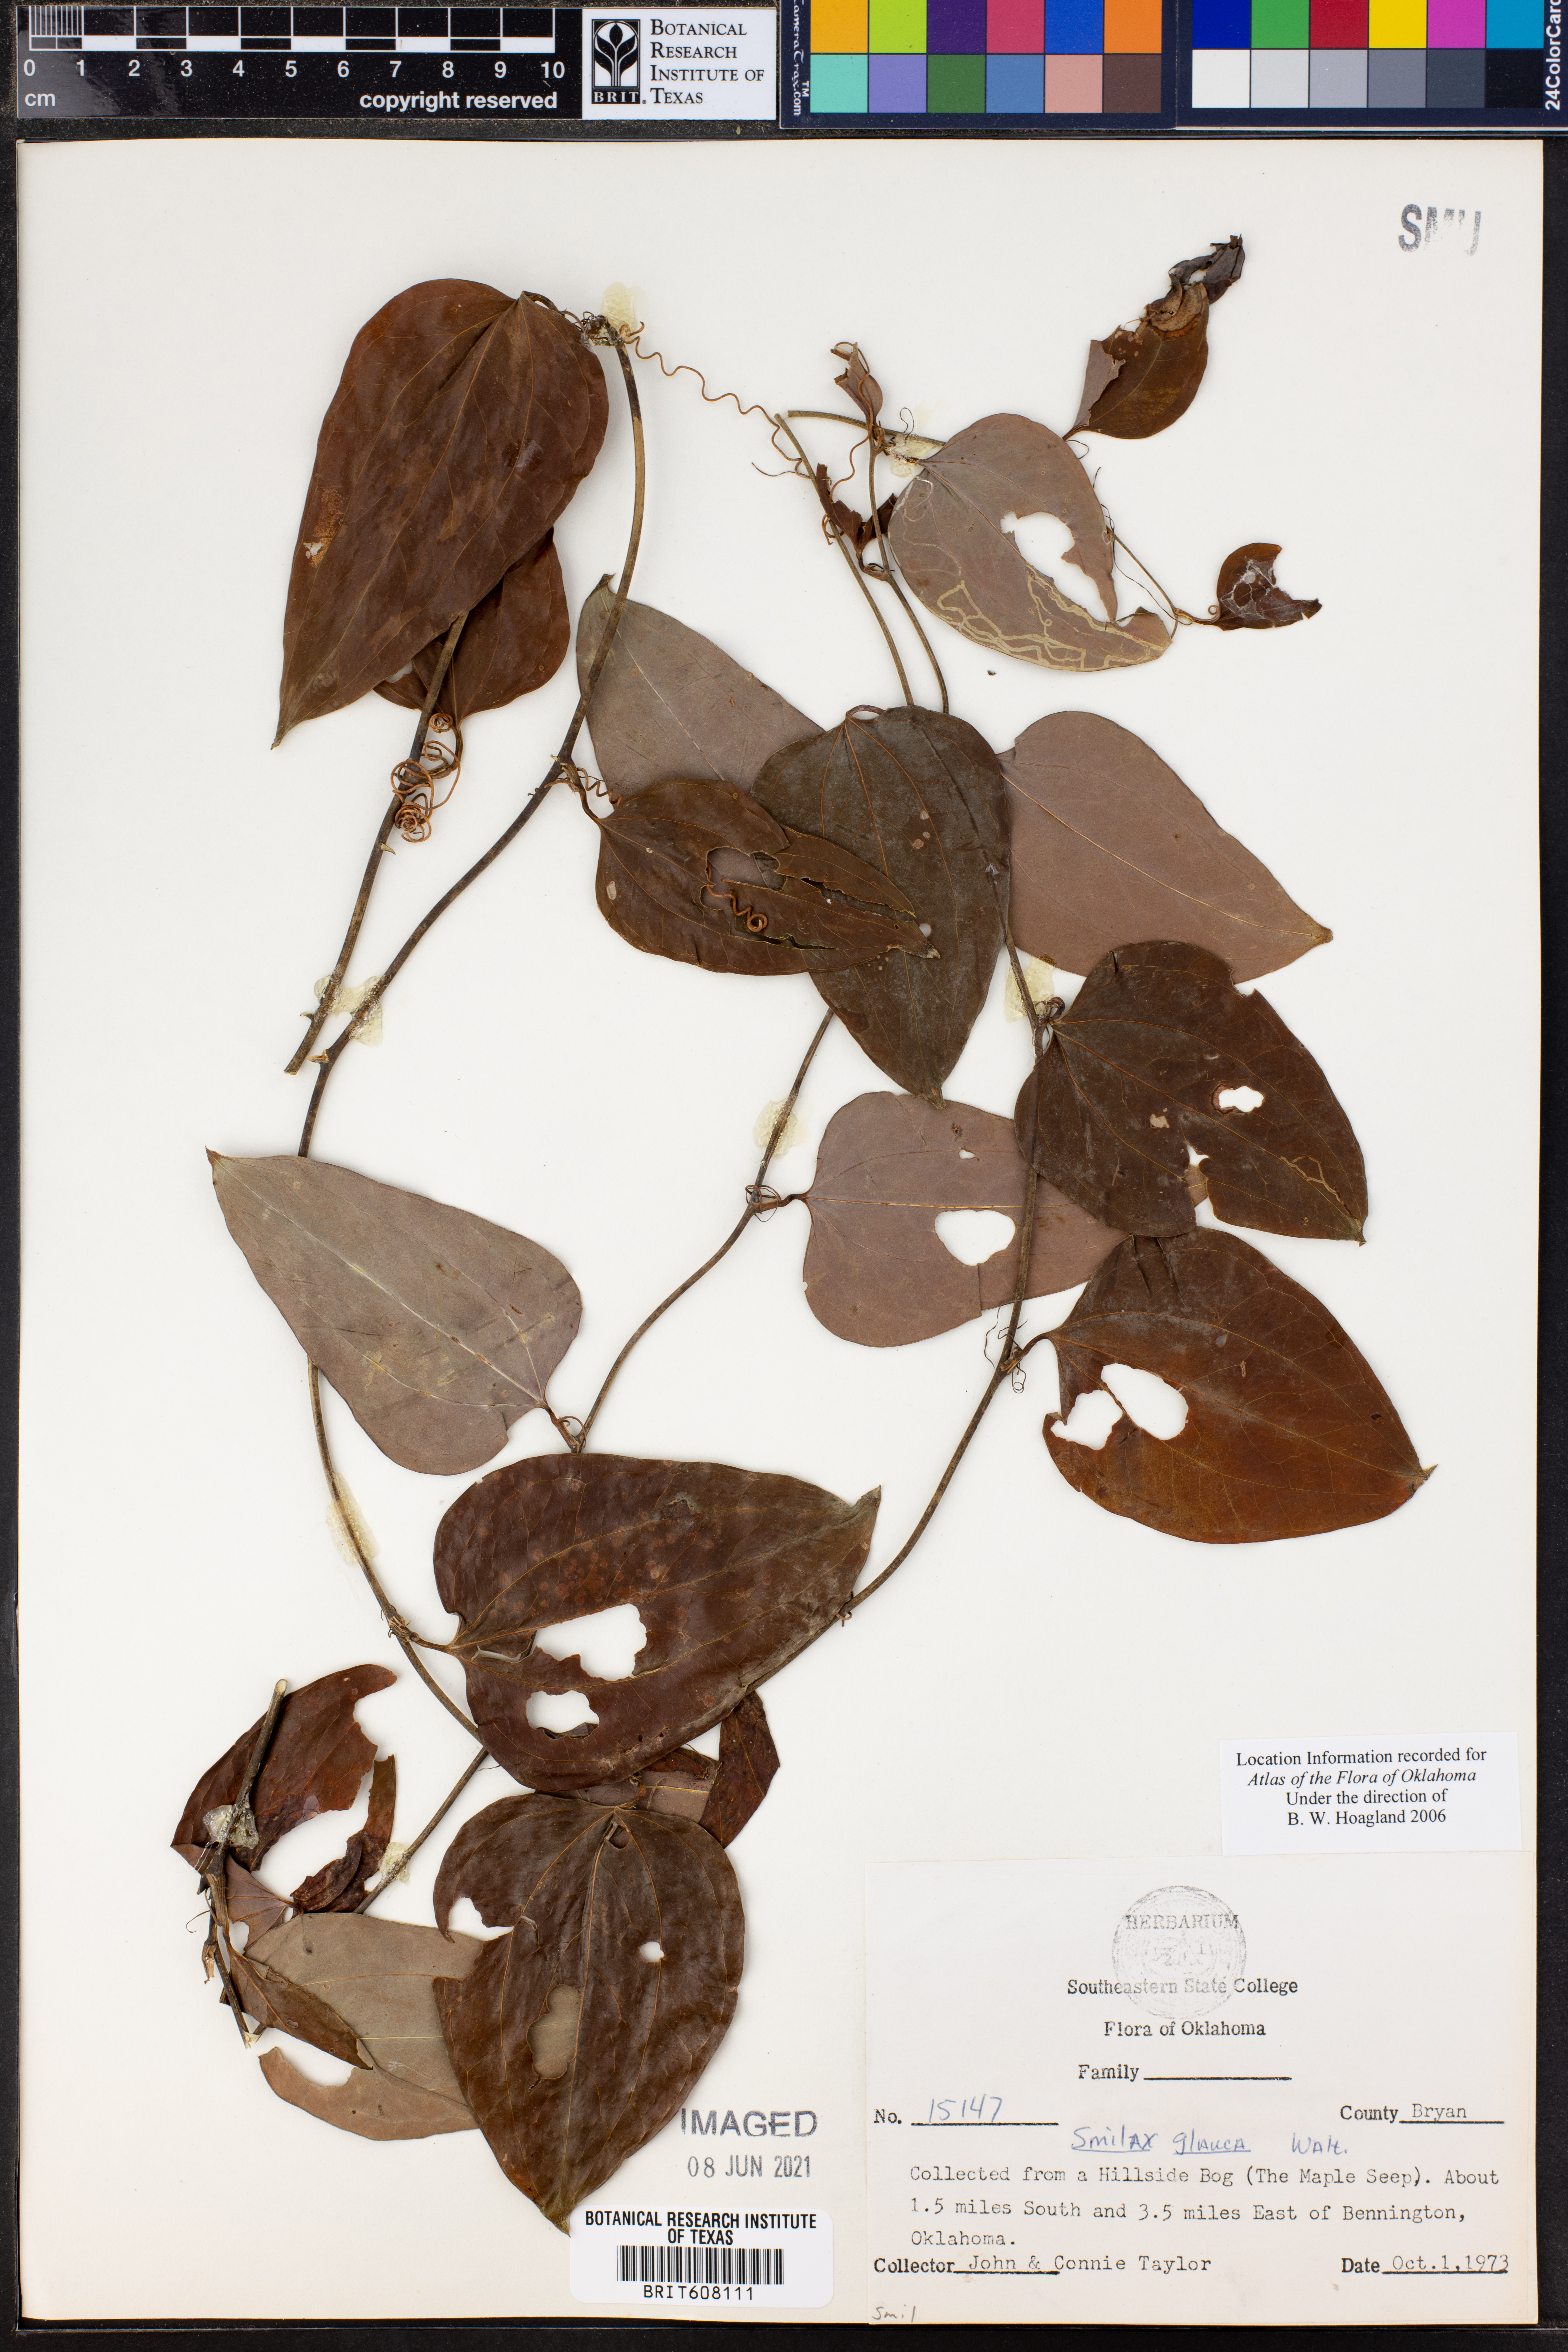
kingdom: Plantae
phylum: Tracheophyta
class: Liliopsida
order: Liliales
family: Smilacaceae
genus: Smilax
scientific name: Smilax glauca
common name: Cat greenbrier
